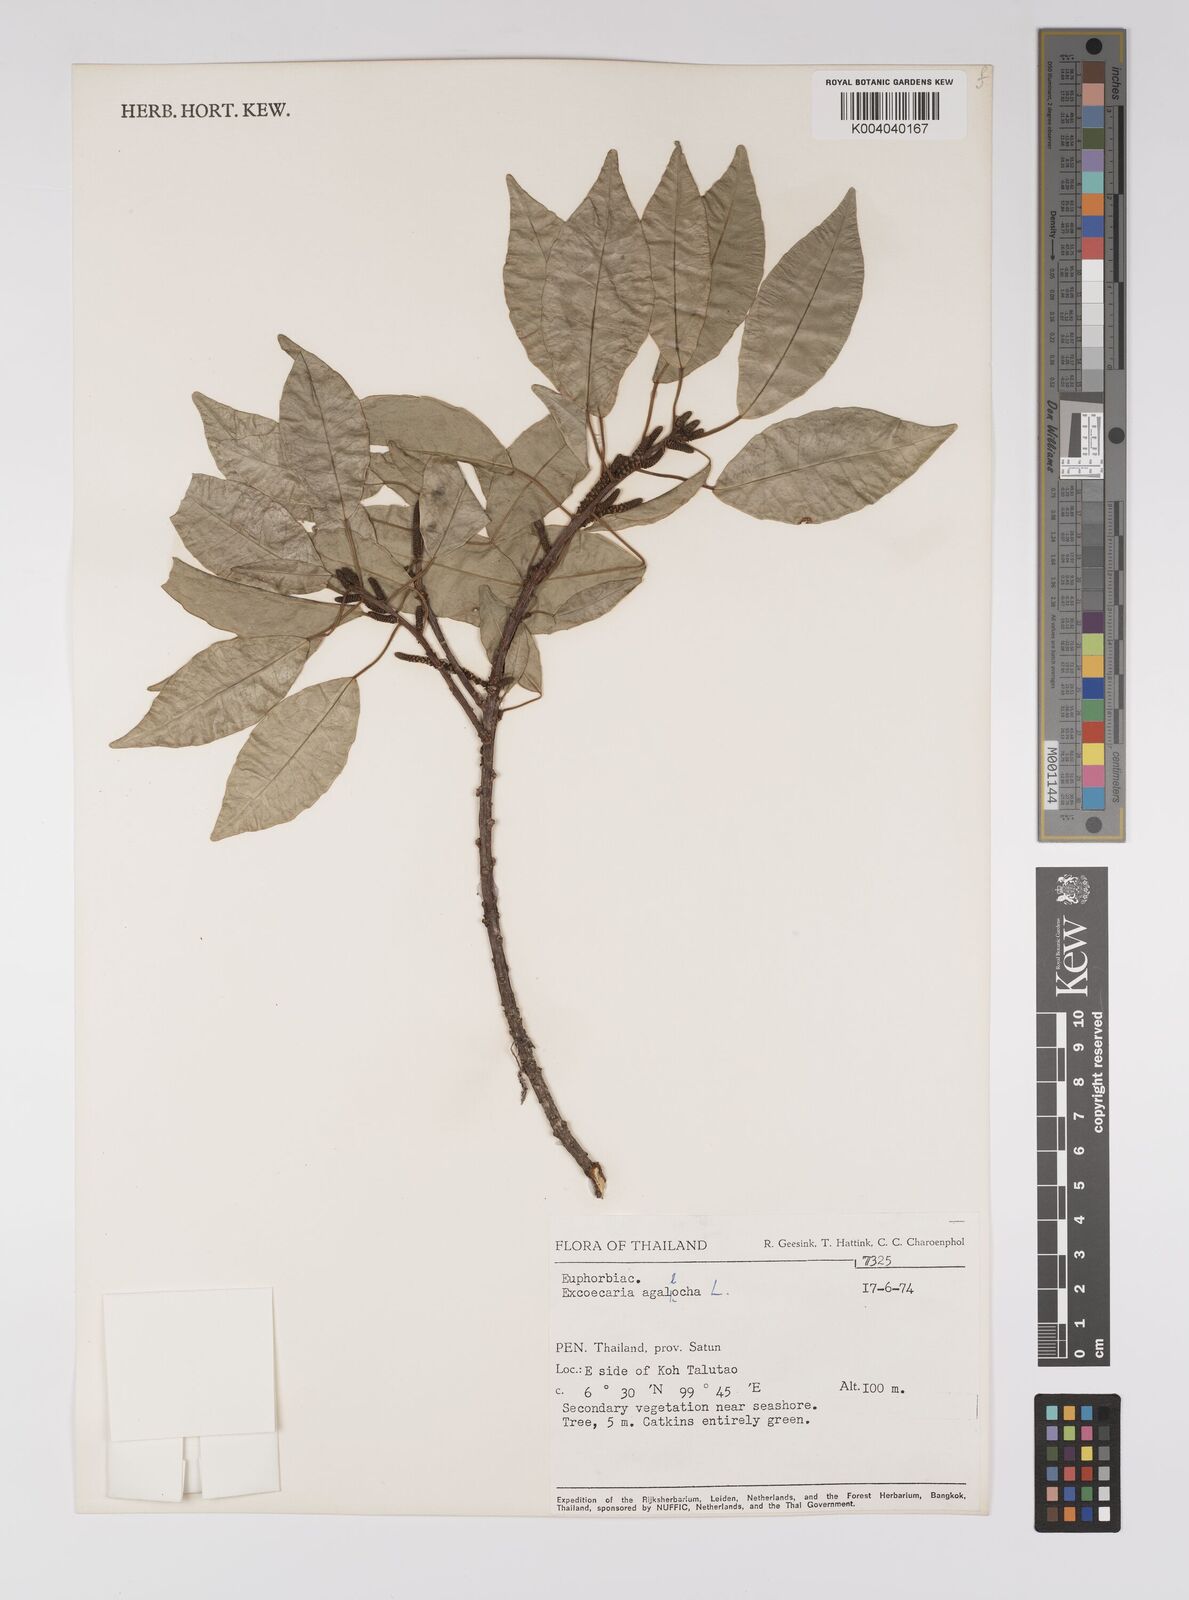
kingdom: Plantae
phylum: Tracheophyta
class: Magnoliopsida
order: Malpighiales
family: Euphorbiaceae
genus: Excoecaria
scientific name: Excoecaria agallocha
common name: River poisontree
